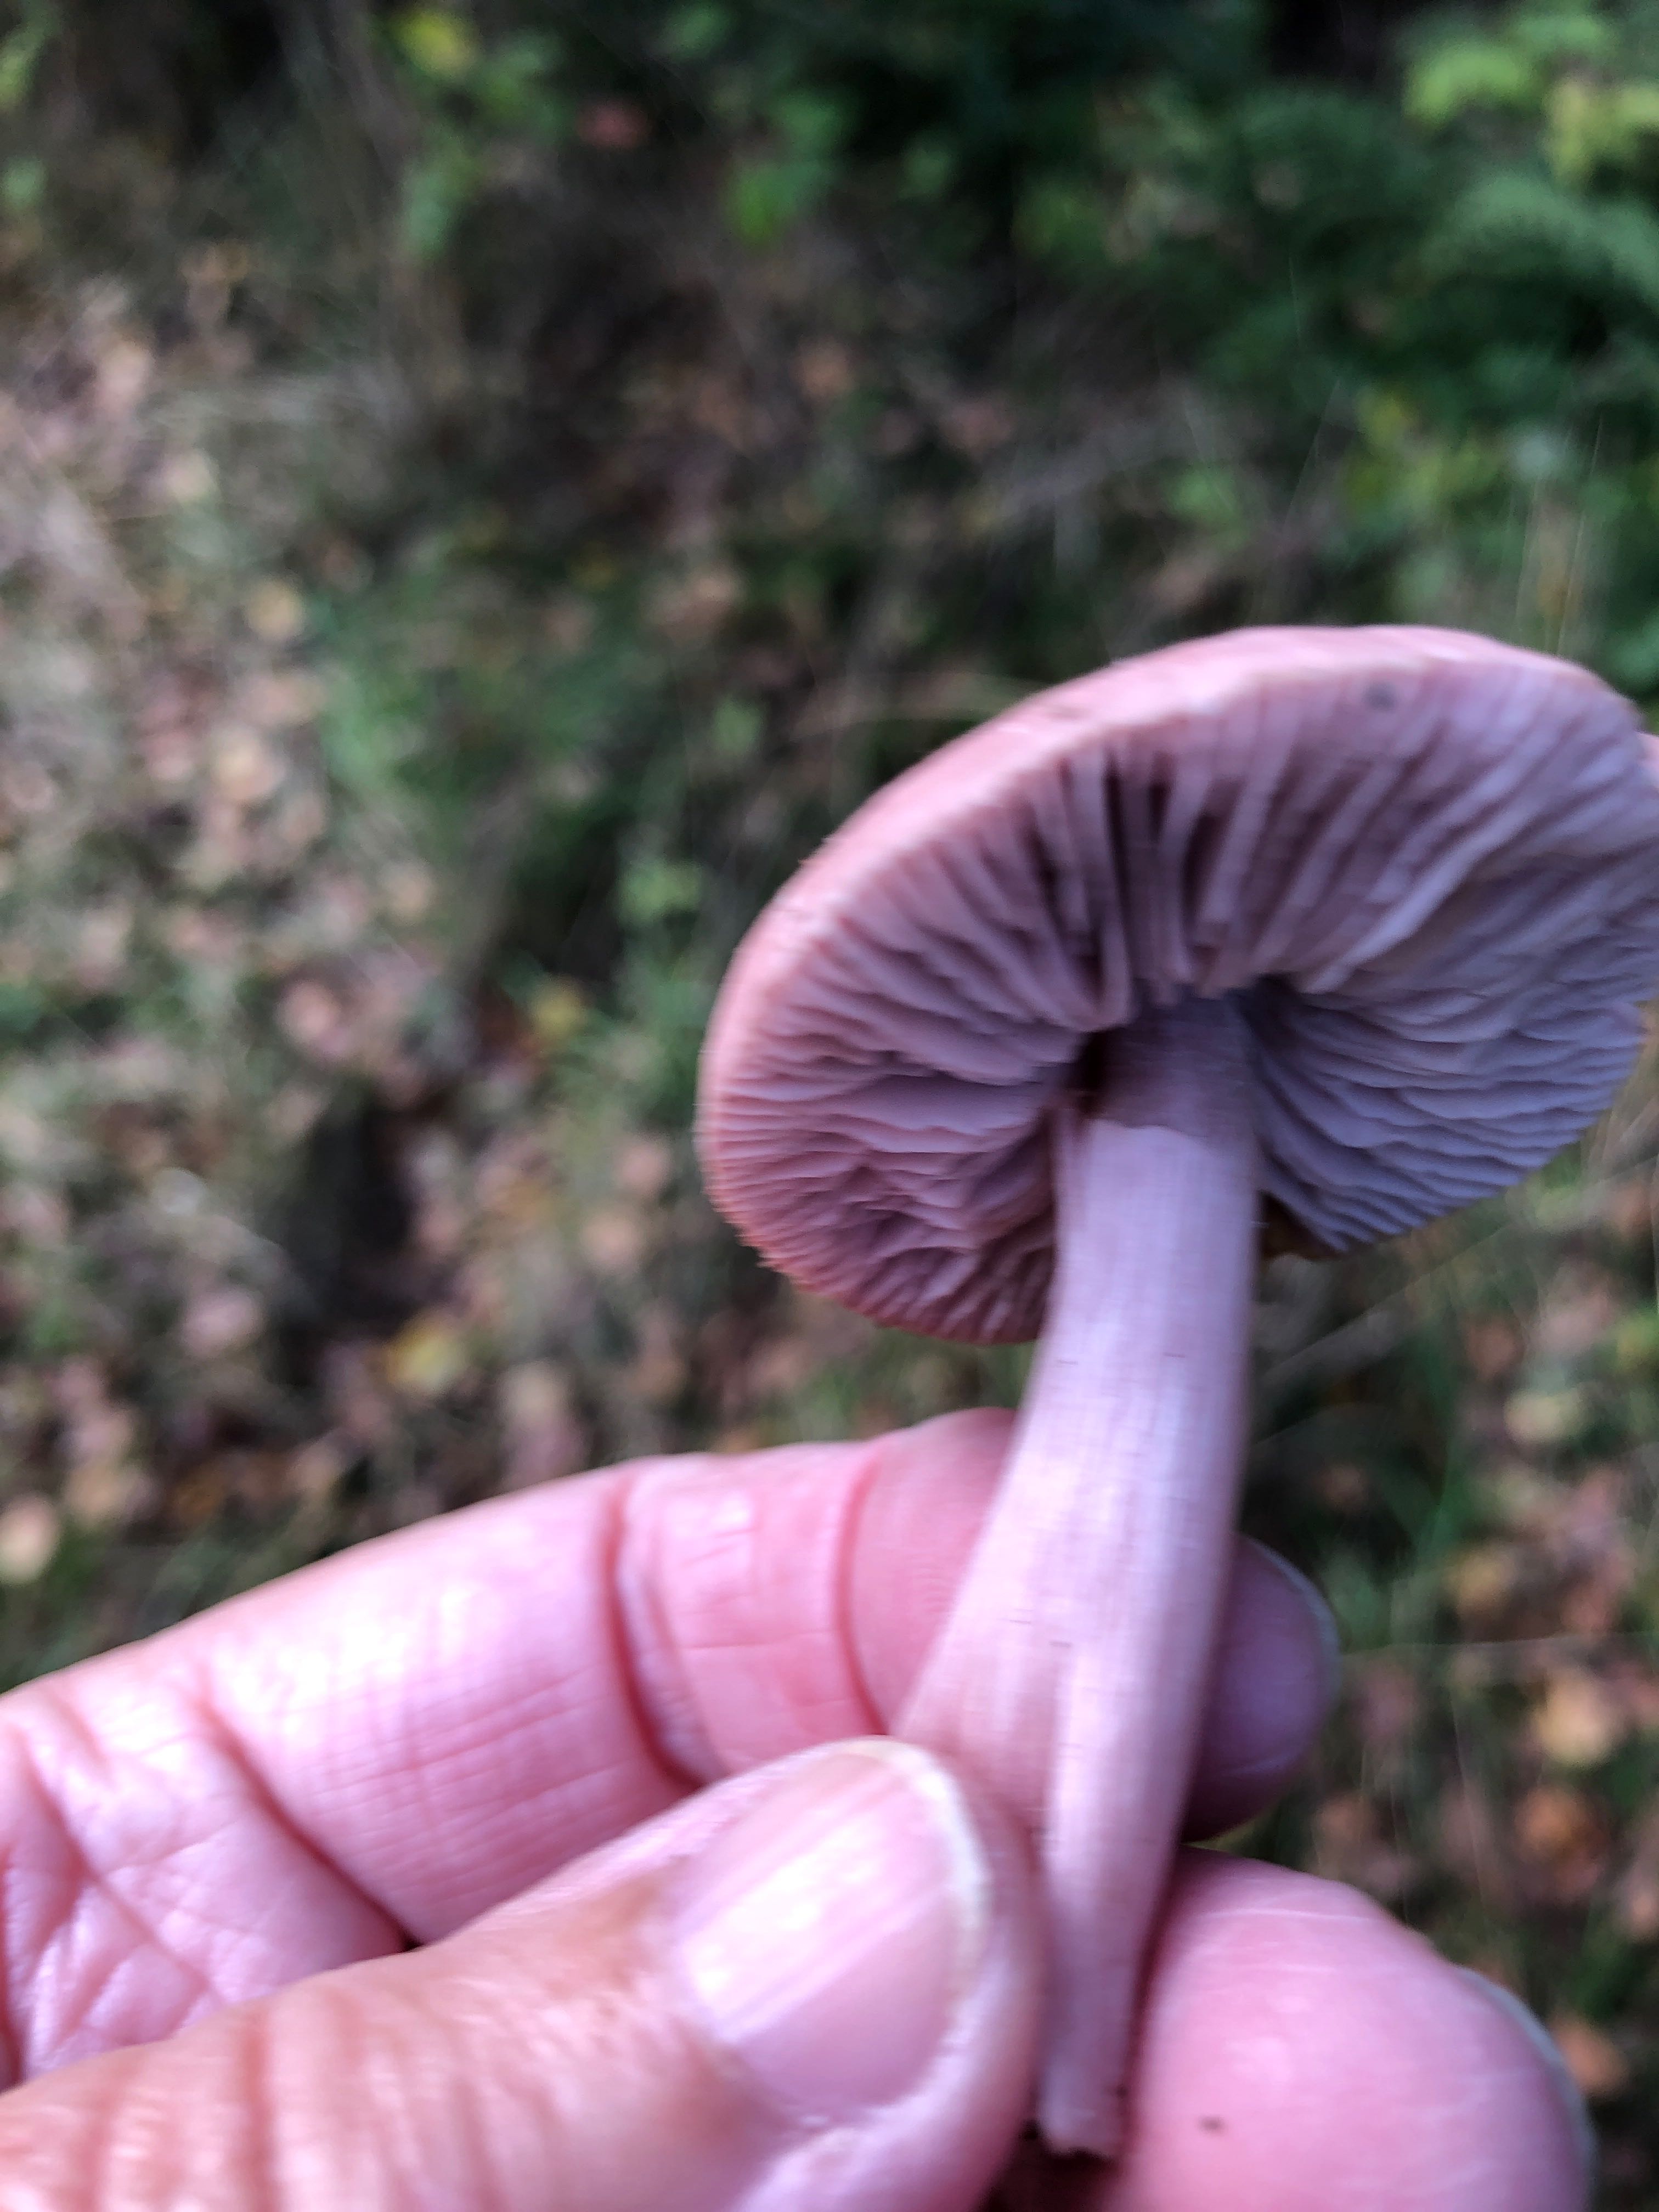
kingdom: Fungi
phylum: Basidiomycota
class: Agaricomycetes
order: Agaricales
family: Mycenaceae
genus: Mycena
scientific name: Mycena
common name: huesvamp
